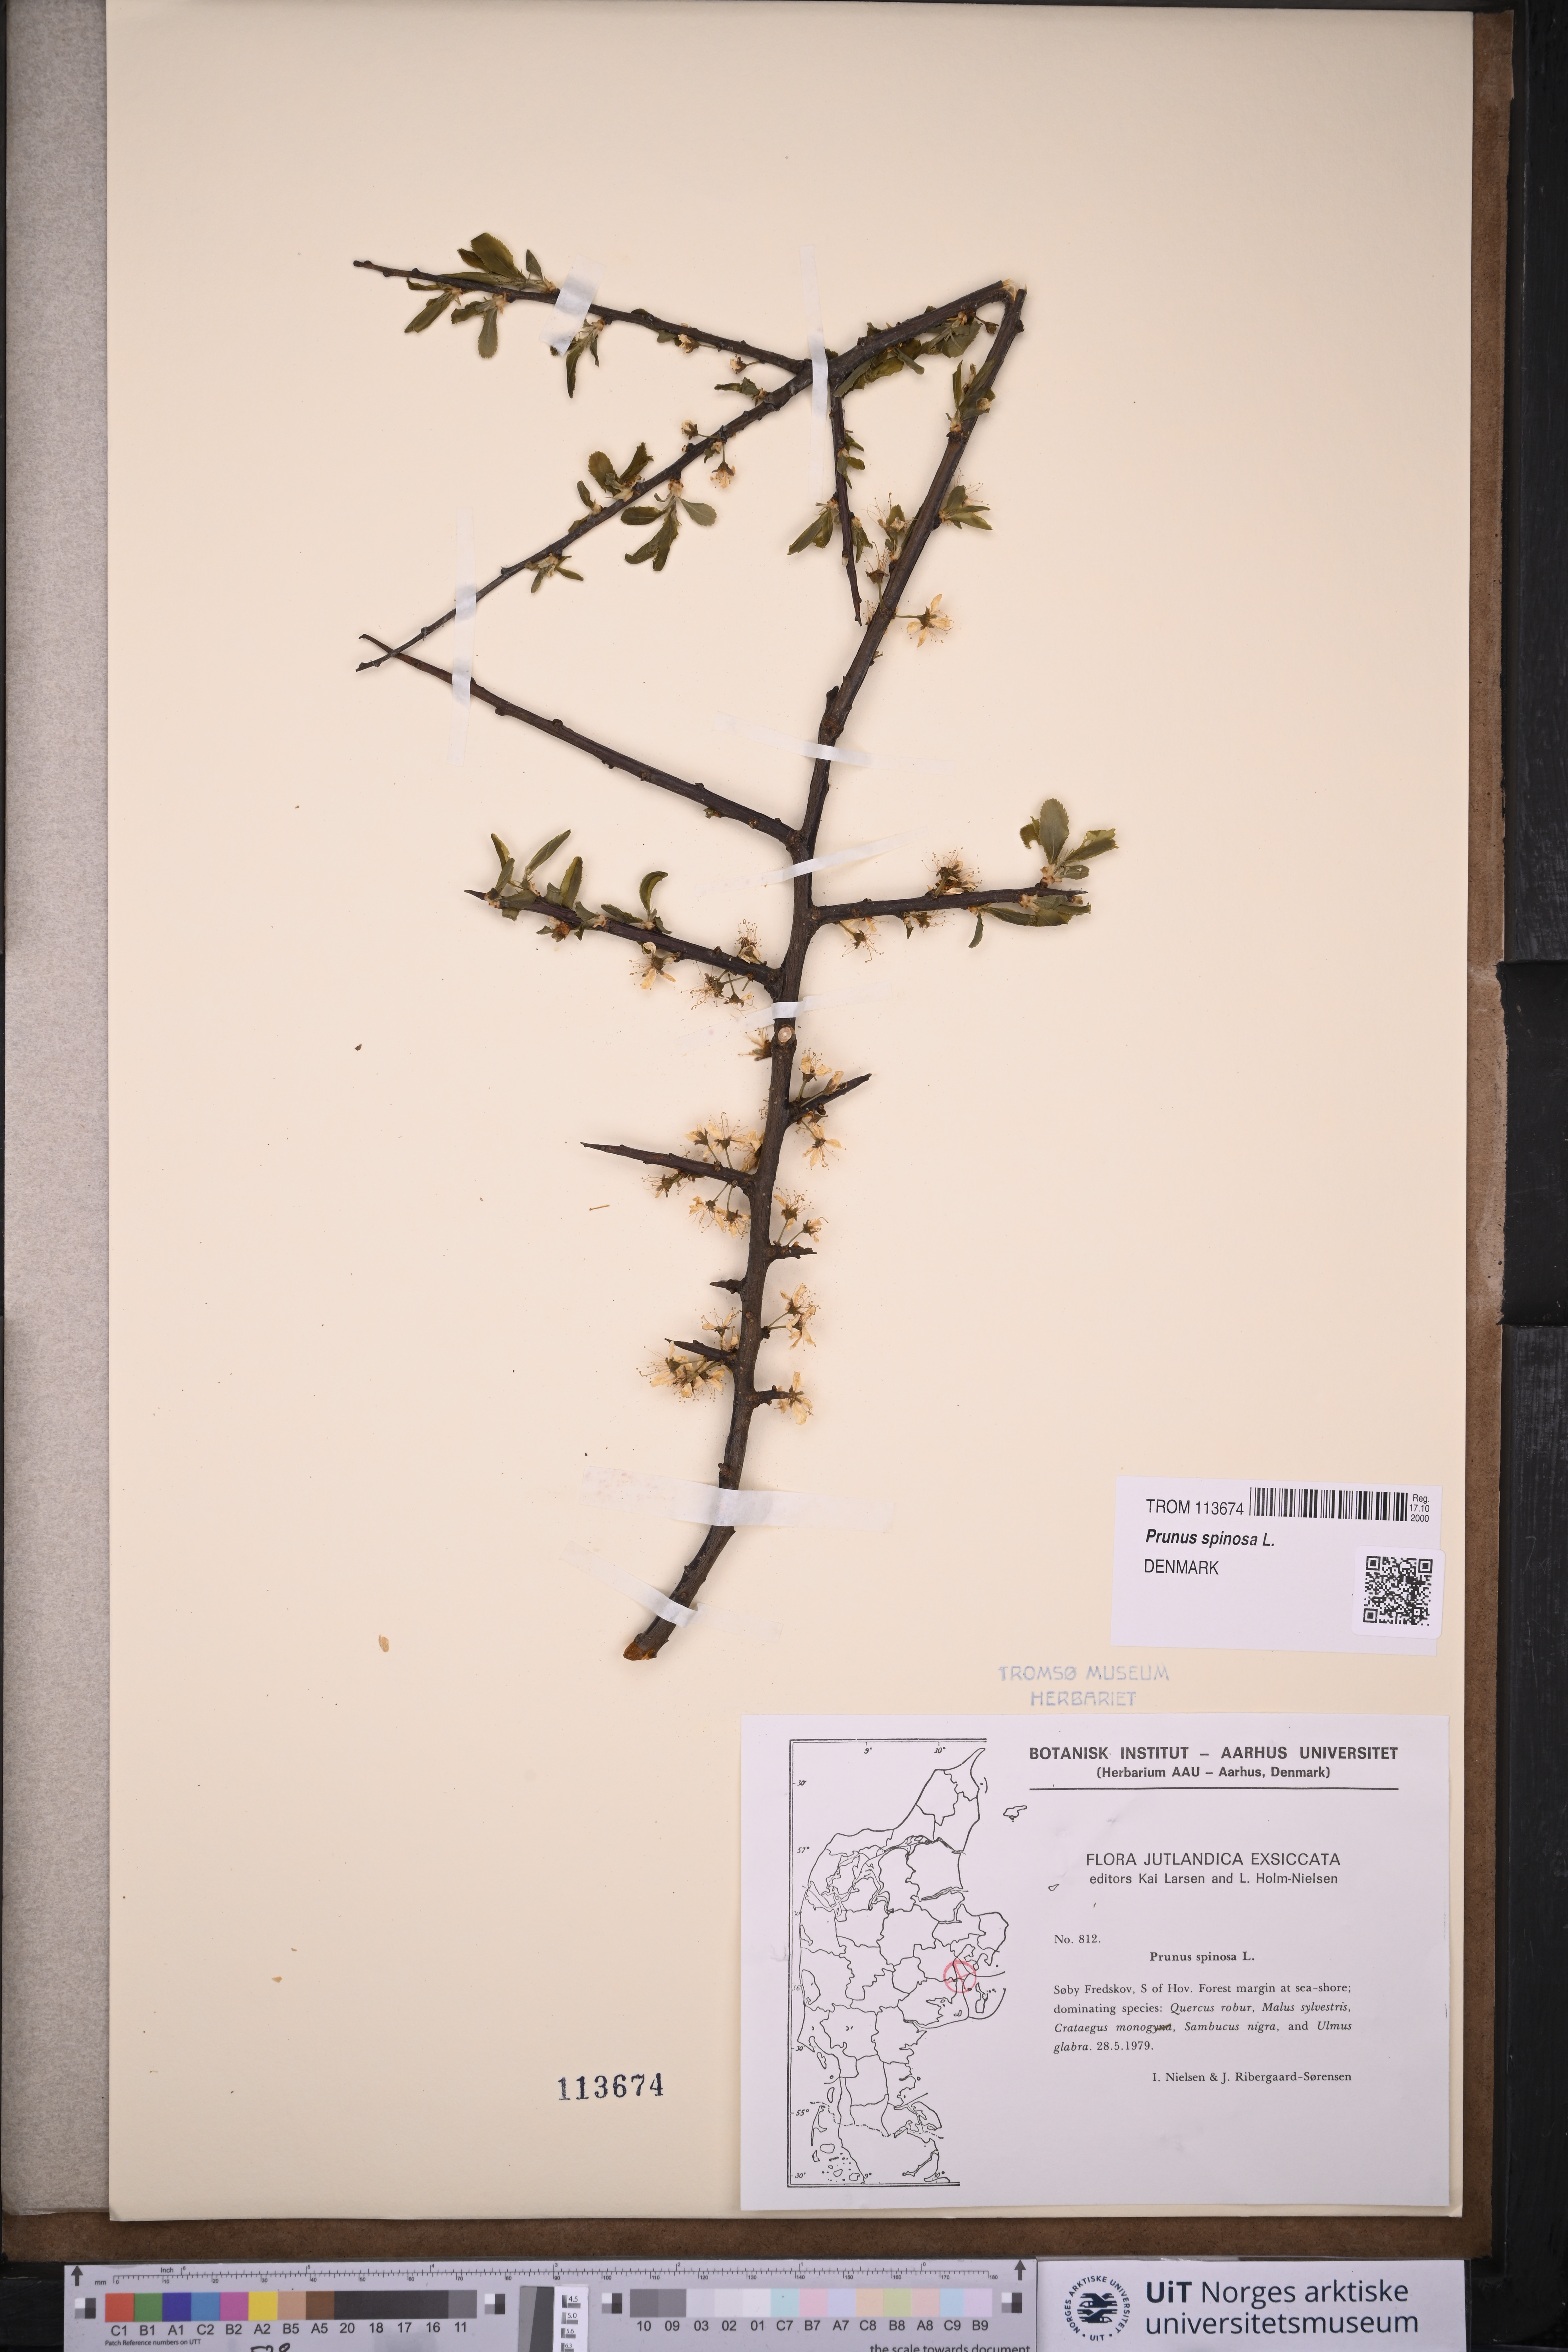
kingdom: Plantae
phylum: Tracheophyta
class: Magnoliopsida
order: Rosales
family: Rosaceae
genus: Prunus
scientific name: Prunus spinosa
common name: Blackthorn
